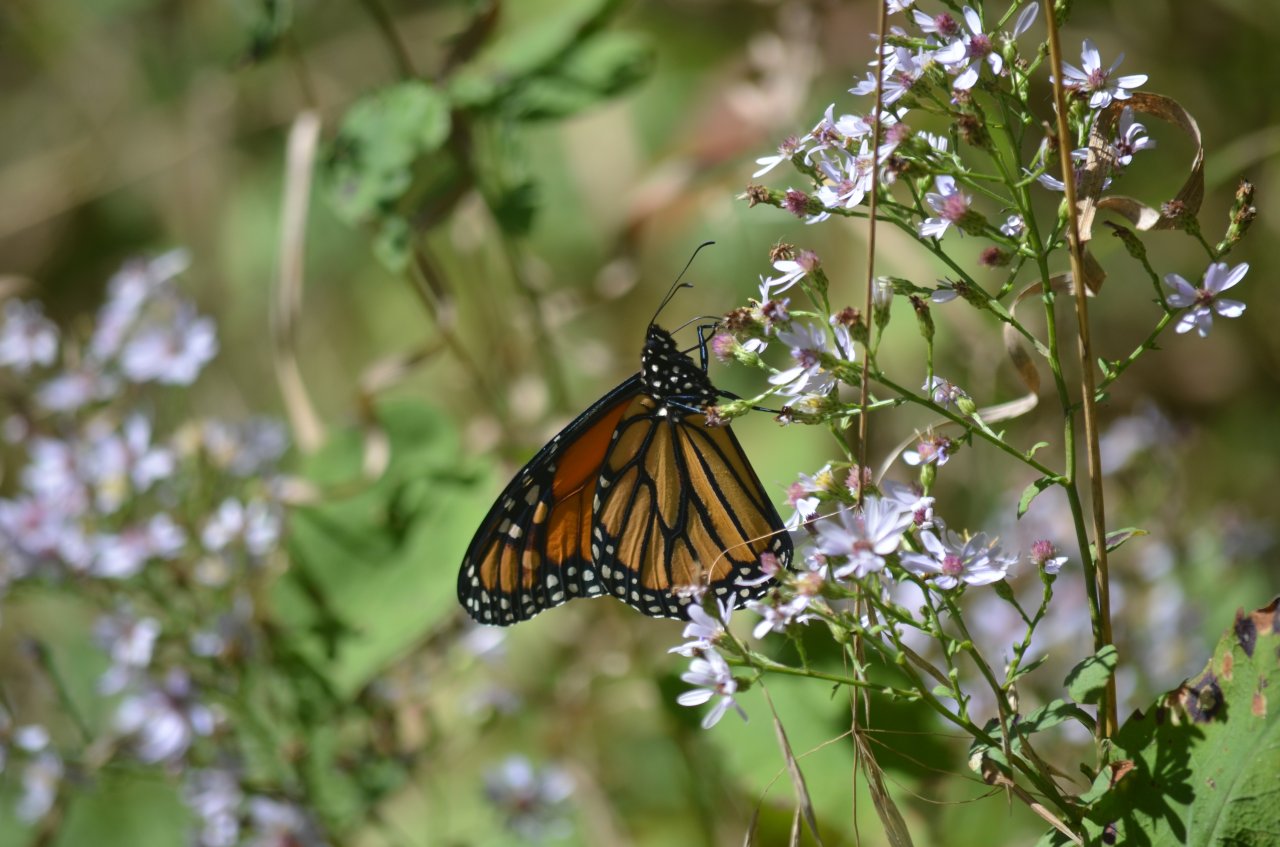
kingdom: Animalia
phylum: Arthropoda
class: Insecta
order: Lepidoptera
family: Nymphalidae
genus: Danaus
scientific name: Danaus plexippus
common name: Monarch
